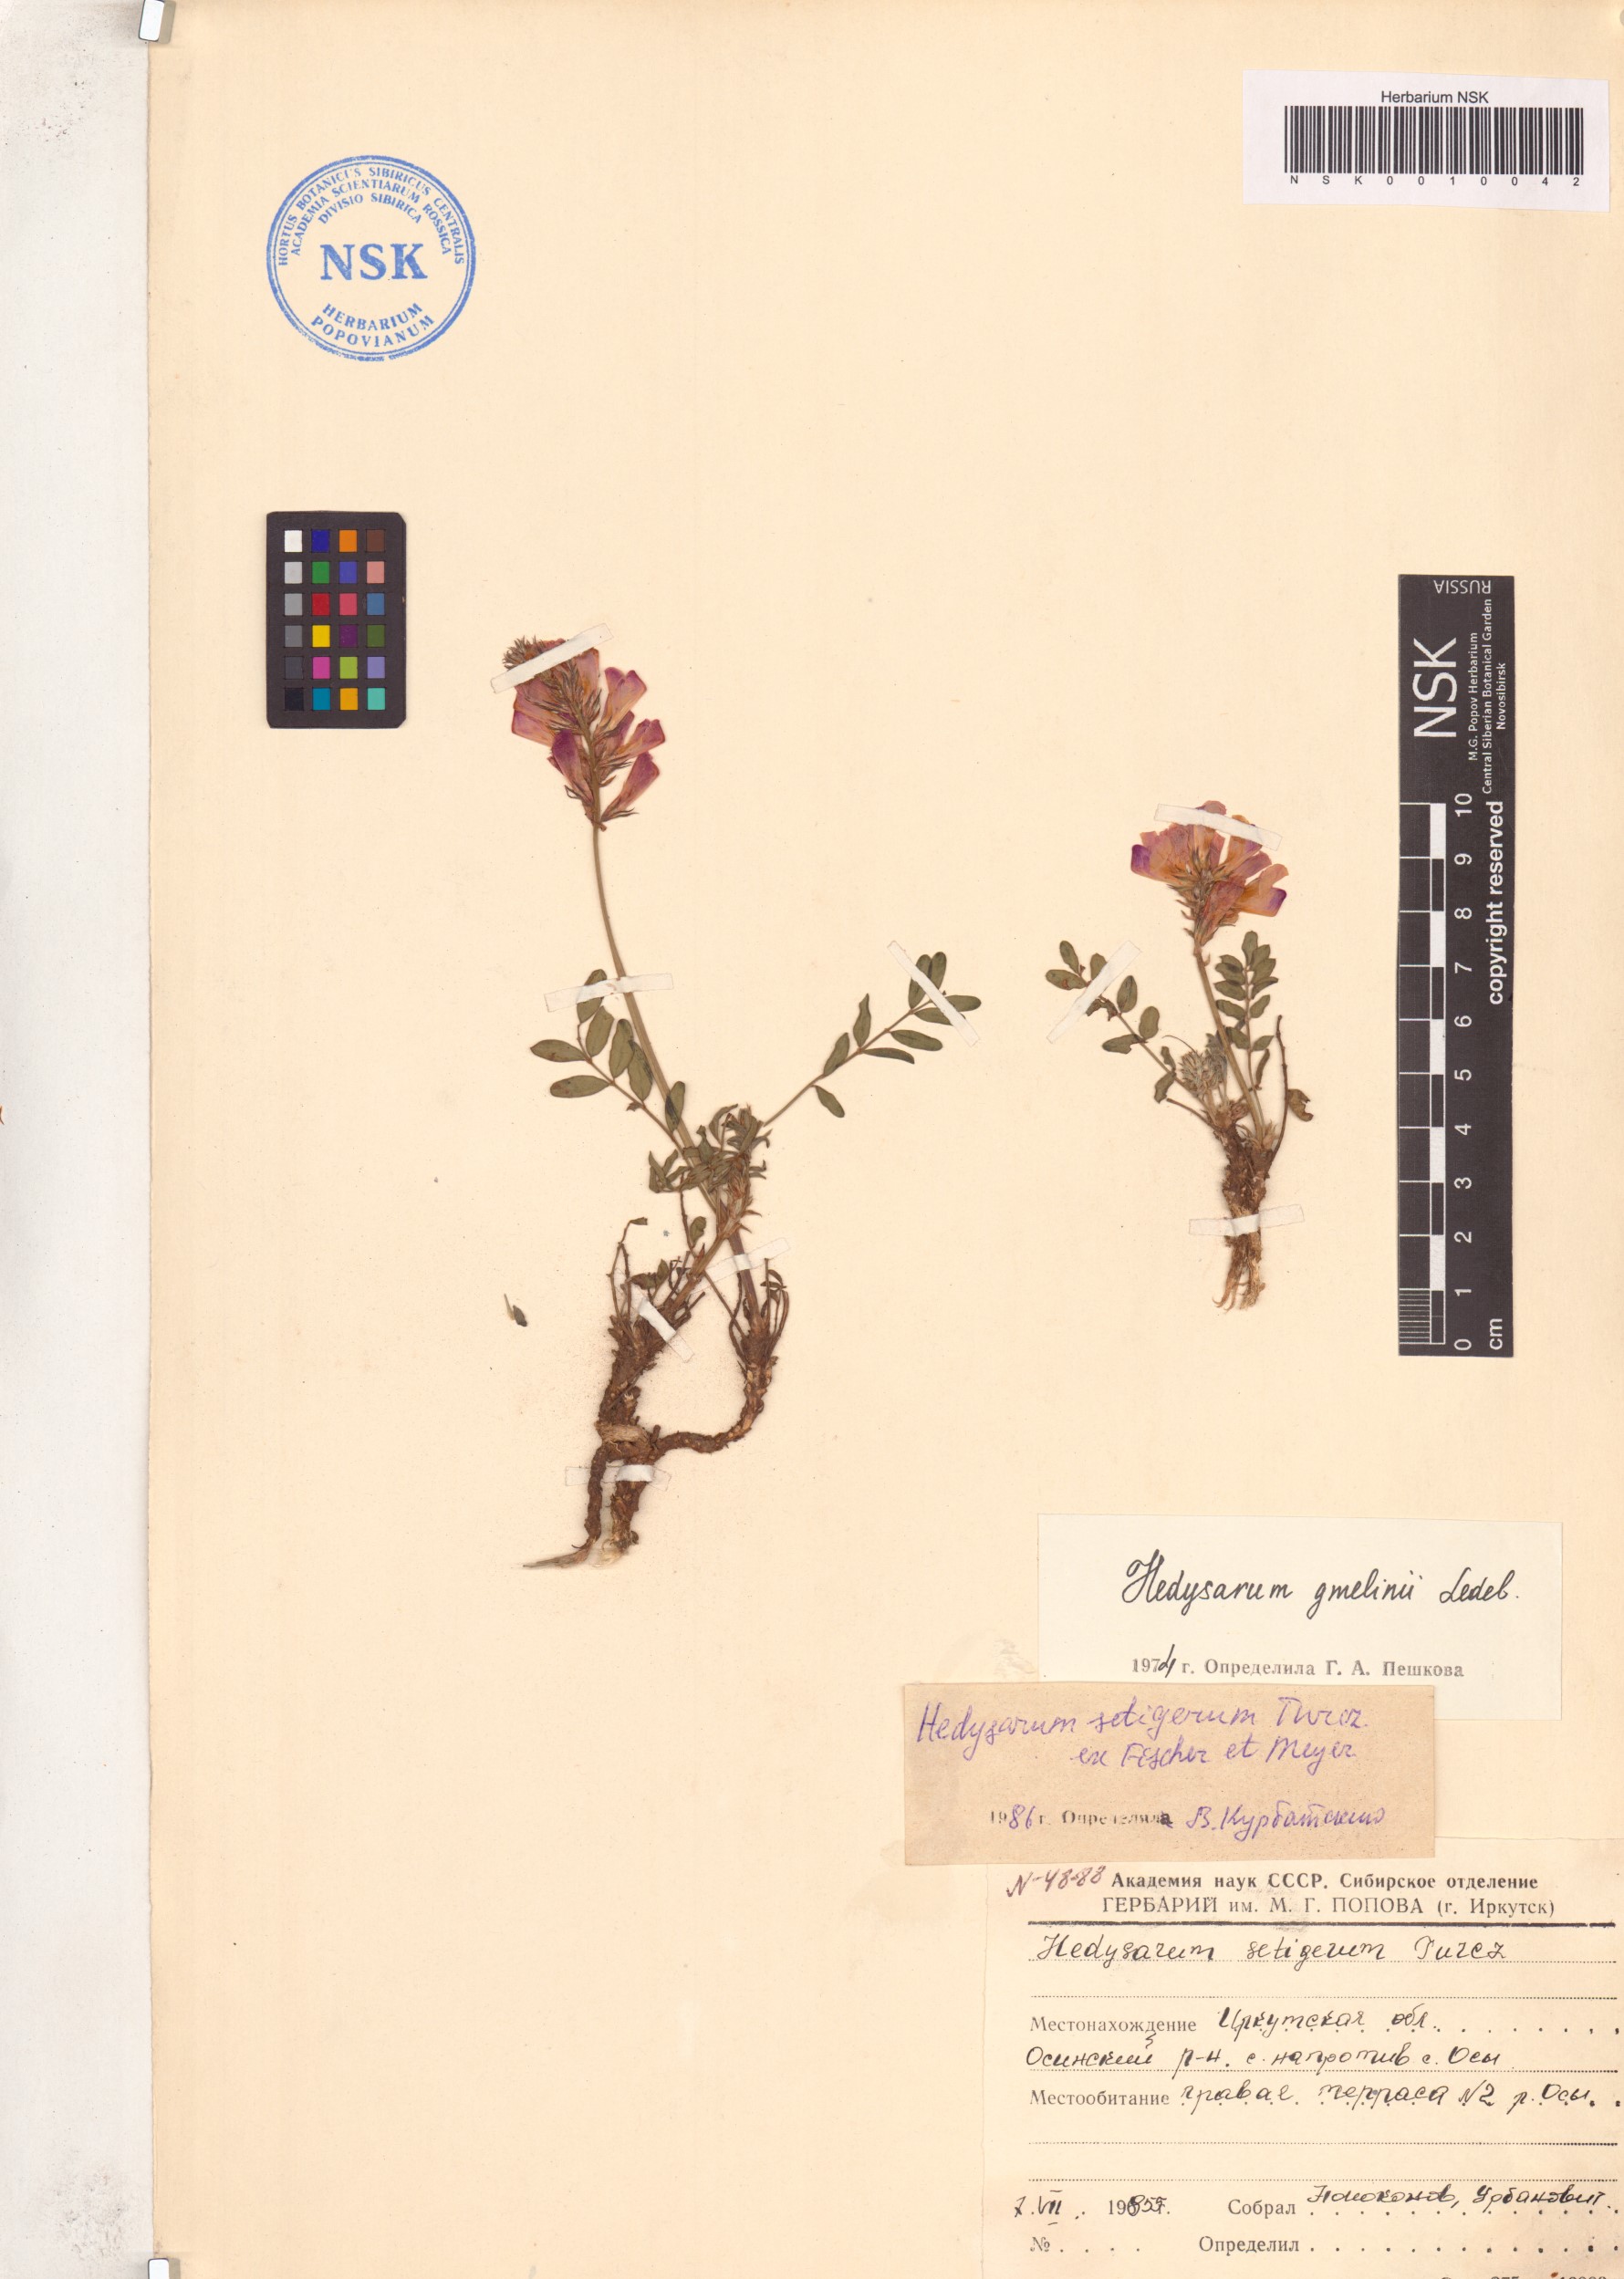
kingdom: Plantae
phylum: Tracheophyta
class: Magnoliopsida
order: Fabales
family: Fabaceae
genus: Hedysarum
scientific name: Hedysarum setigerum
